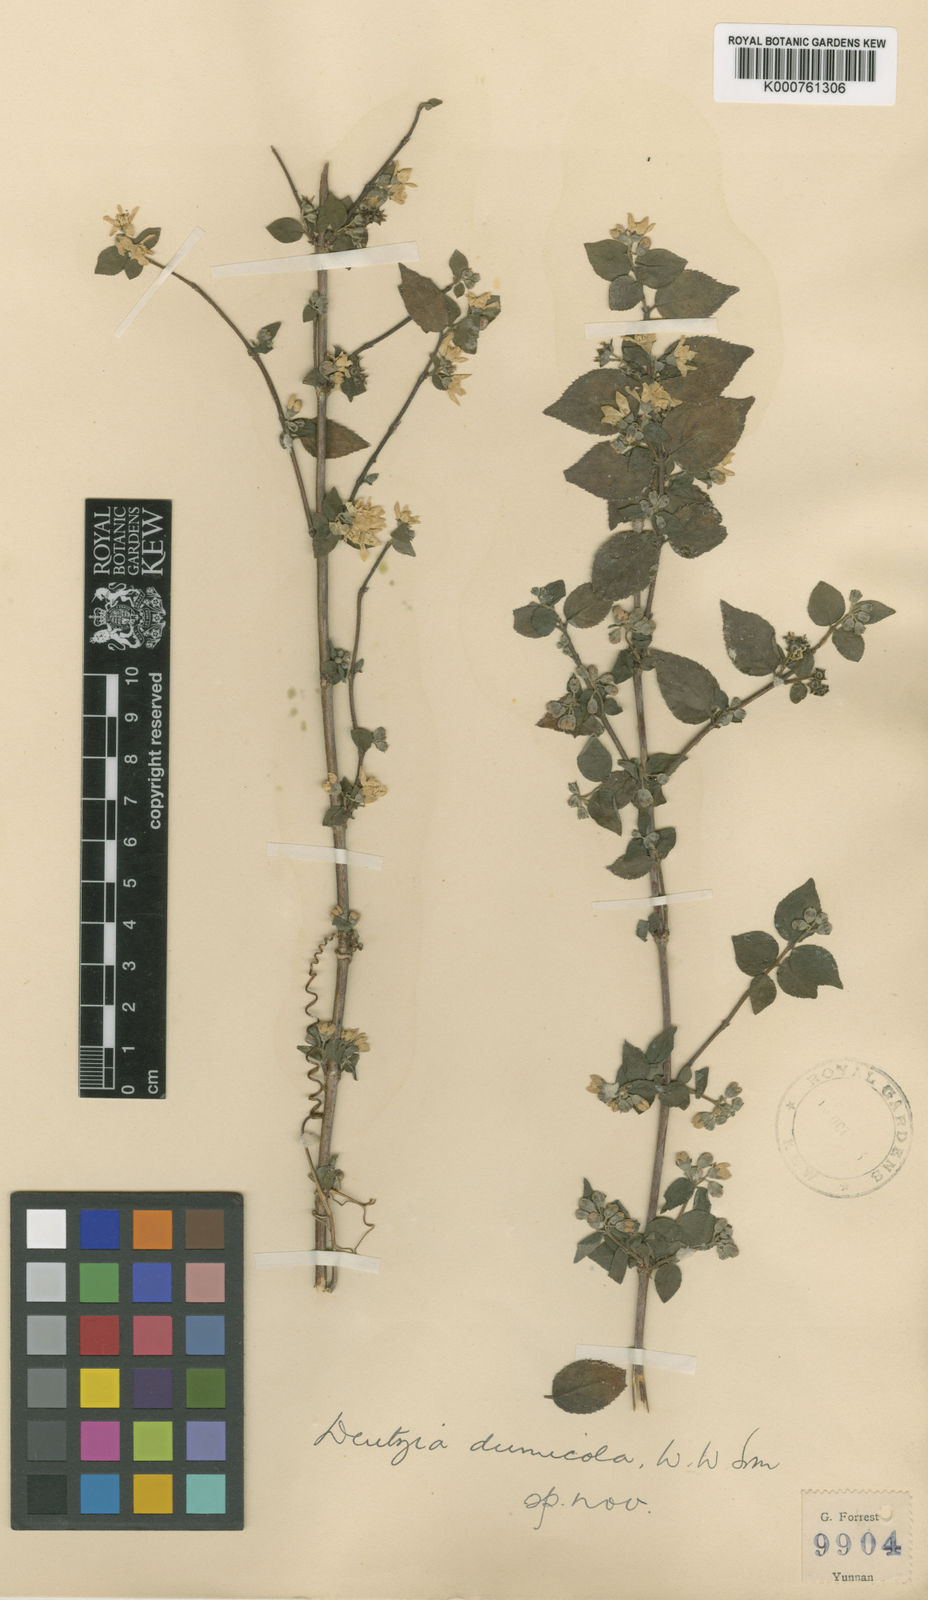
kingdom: Plantae
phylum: Tracheophyta
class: Magnoliopsida
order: Cornales
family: Hydrangeaceae
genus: Deutzia
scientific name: Deutzia rehderiana
